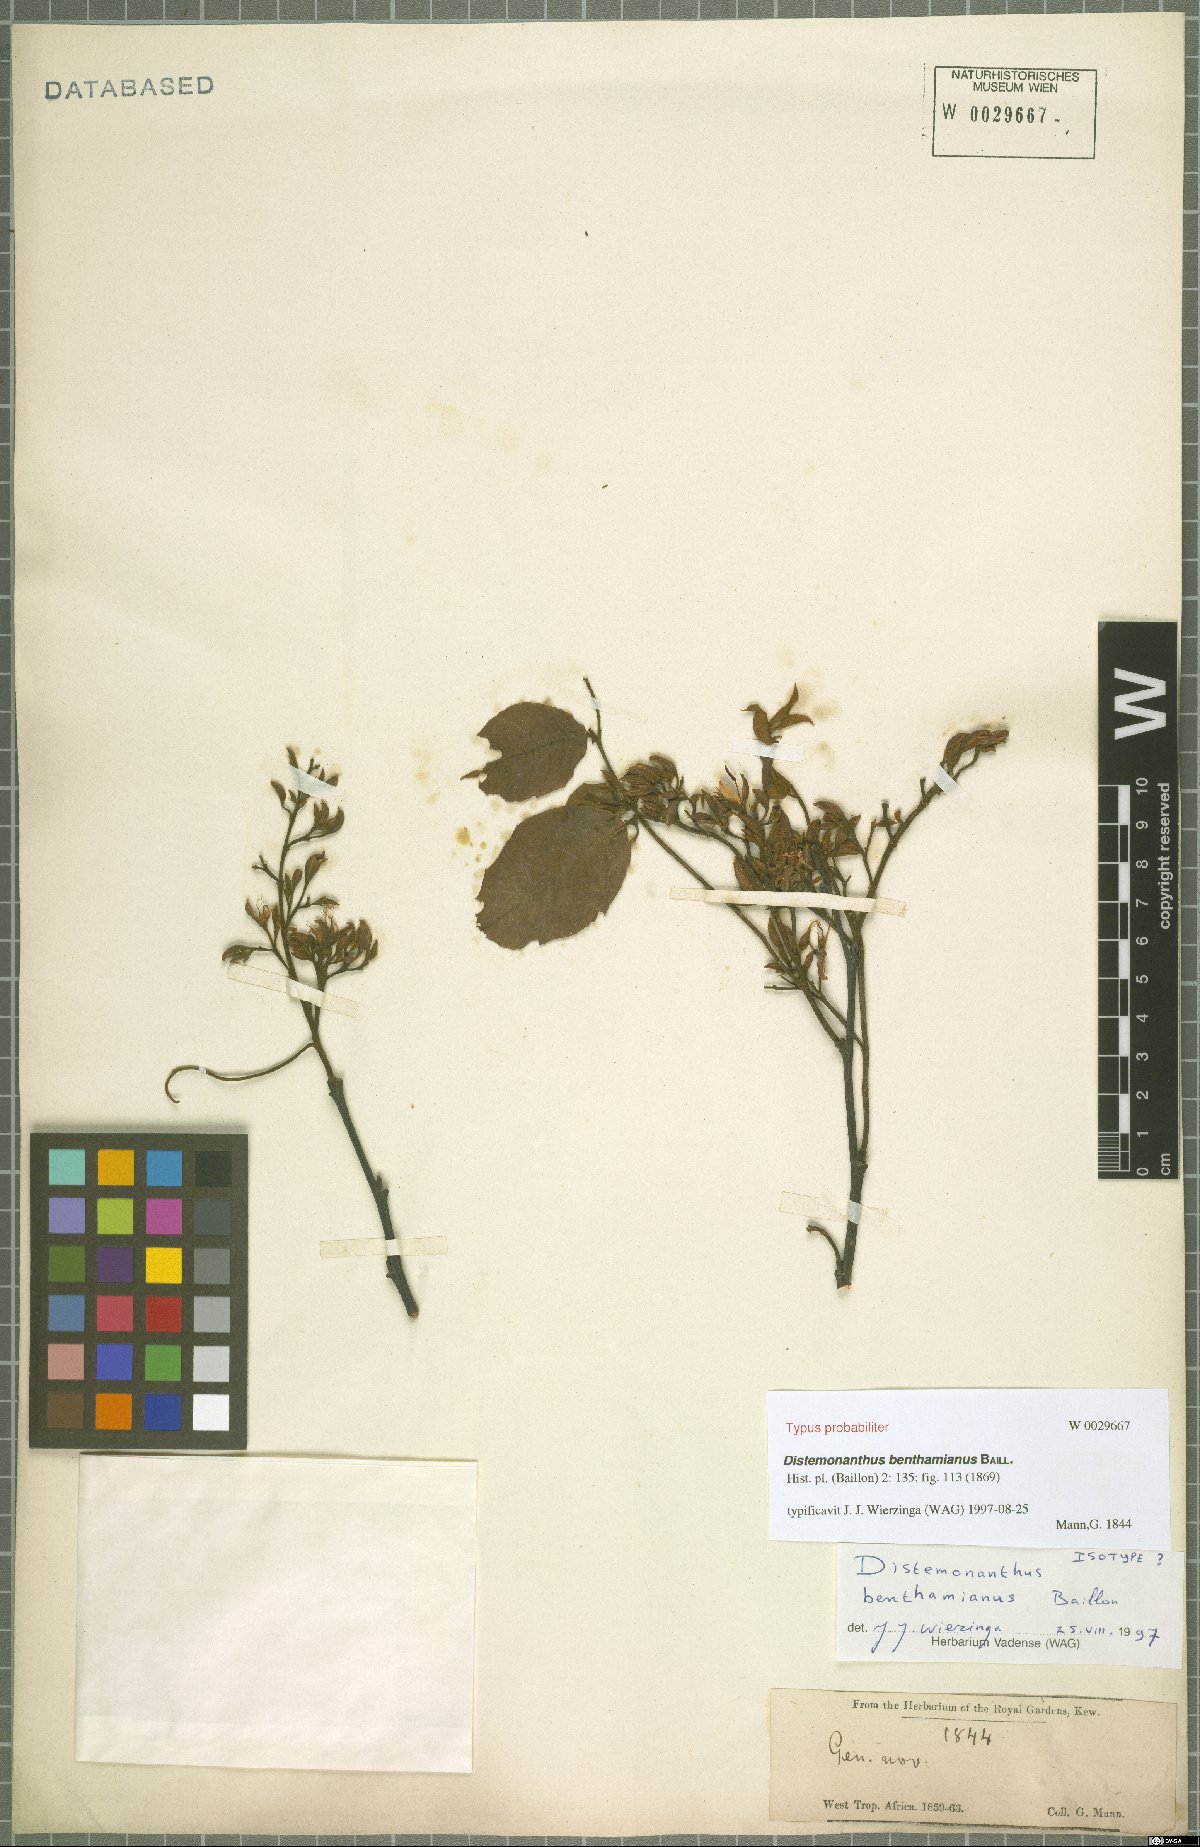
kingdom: Plantae
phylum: Tracheophyta
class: Magnoliopsida
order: Fabales
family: Fabaceae
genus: Distemonanthus
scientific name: Distemonanthus benthamianus
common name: Yellow satinwood
